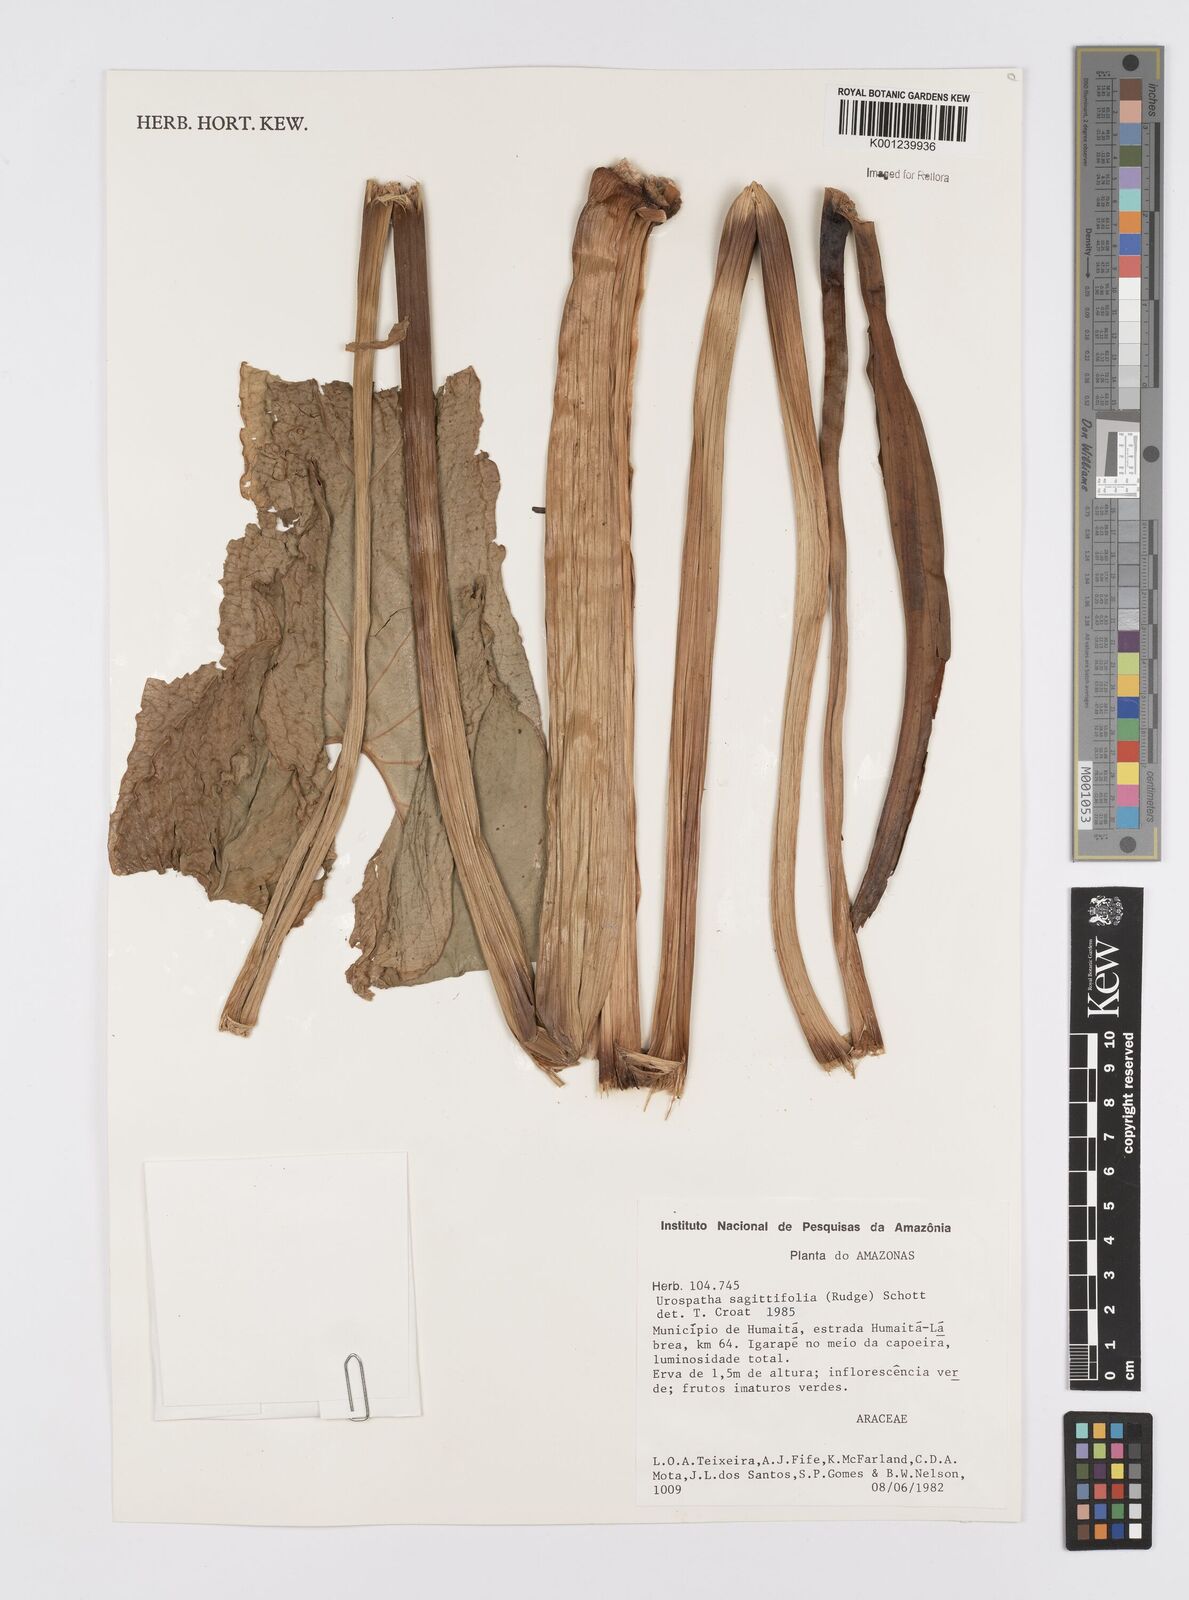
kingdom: Plantae
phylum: Tracheophyta
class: Liliopsida
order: Alismatales
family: Araceae
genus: Urospatha
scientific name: Urospatha sagittifolia
